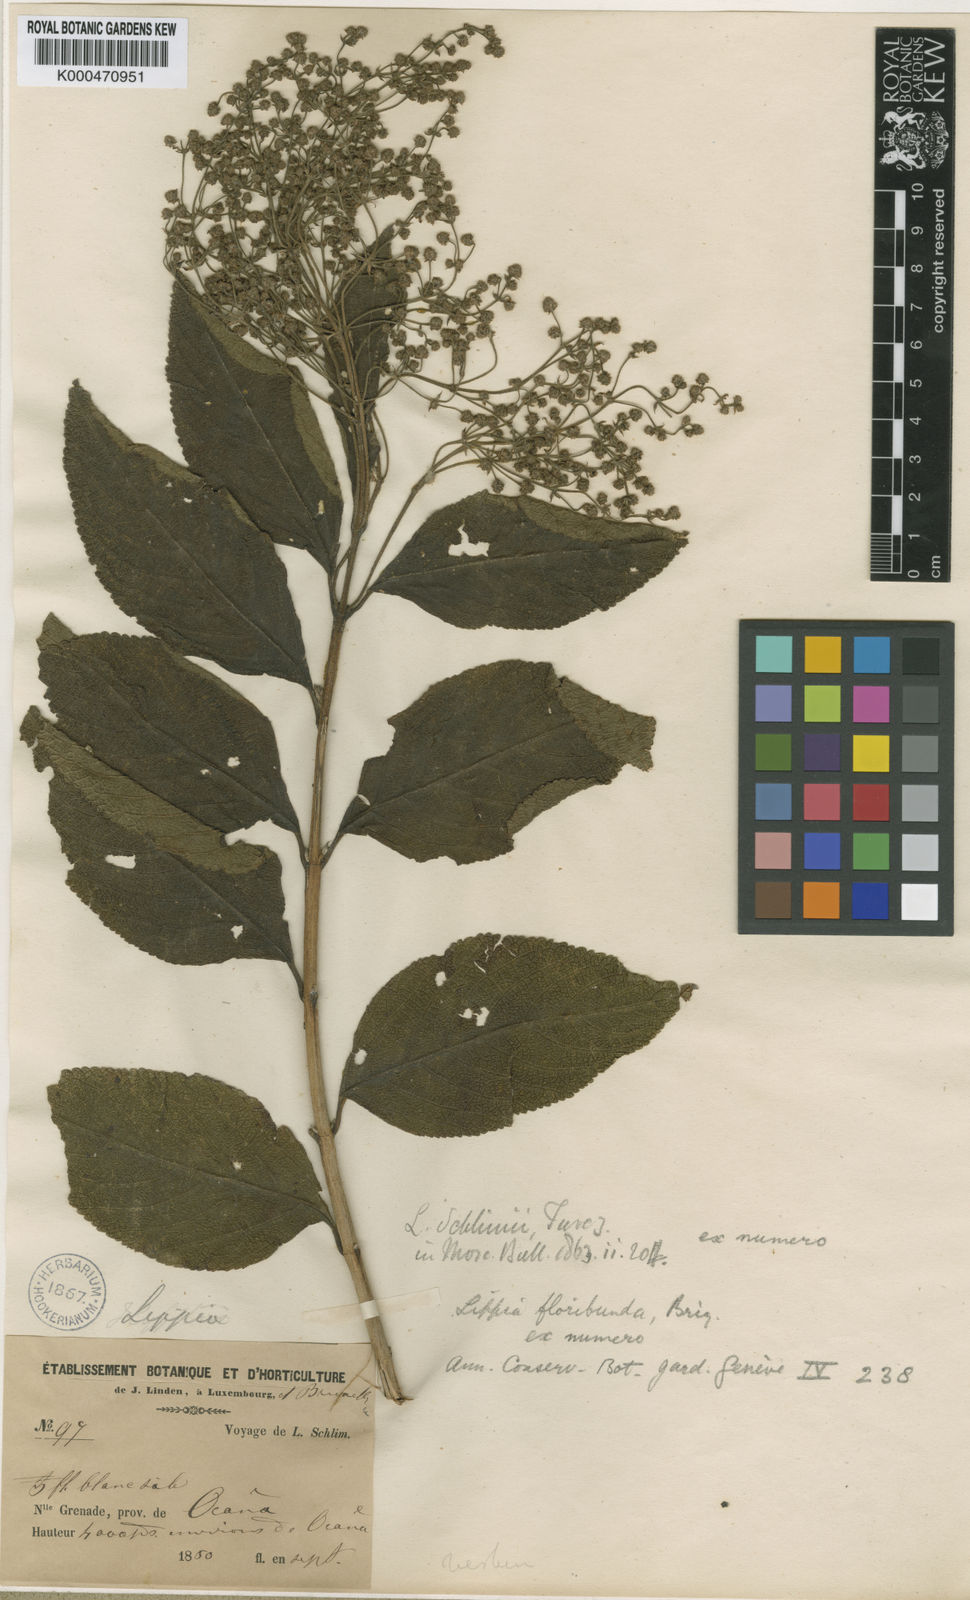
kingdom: Plantae
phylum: Tracheophyta
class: Magnoliopsida
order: Lamiales
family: Verbenaceae
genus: Lippia
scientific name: Lippia schlimii
